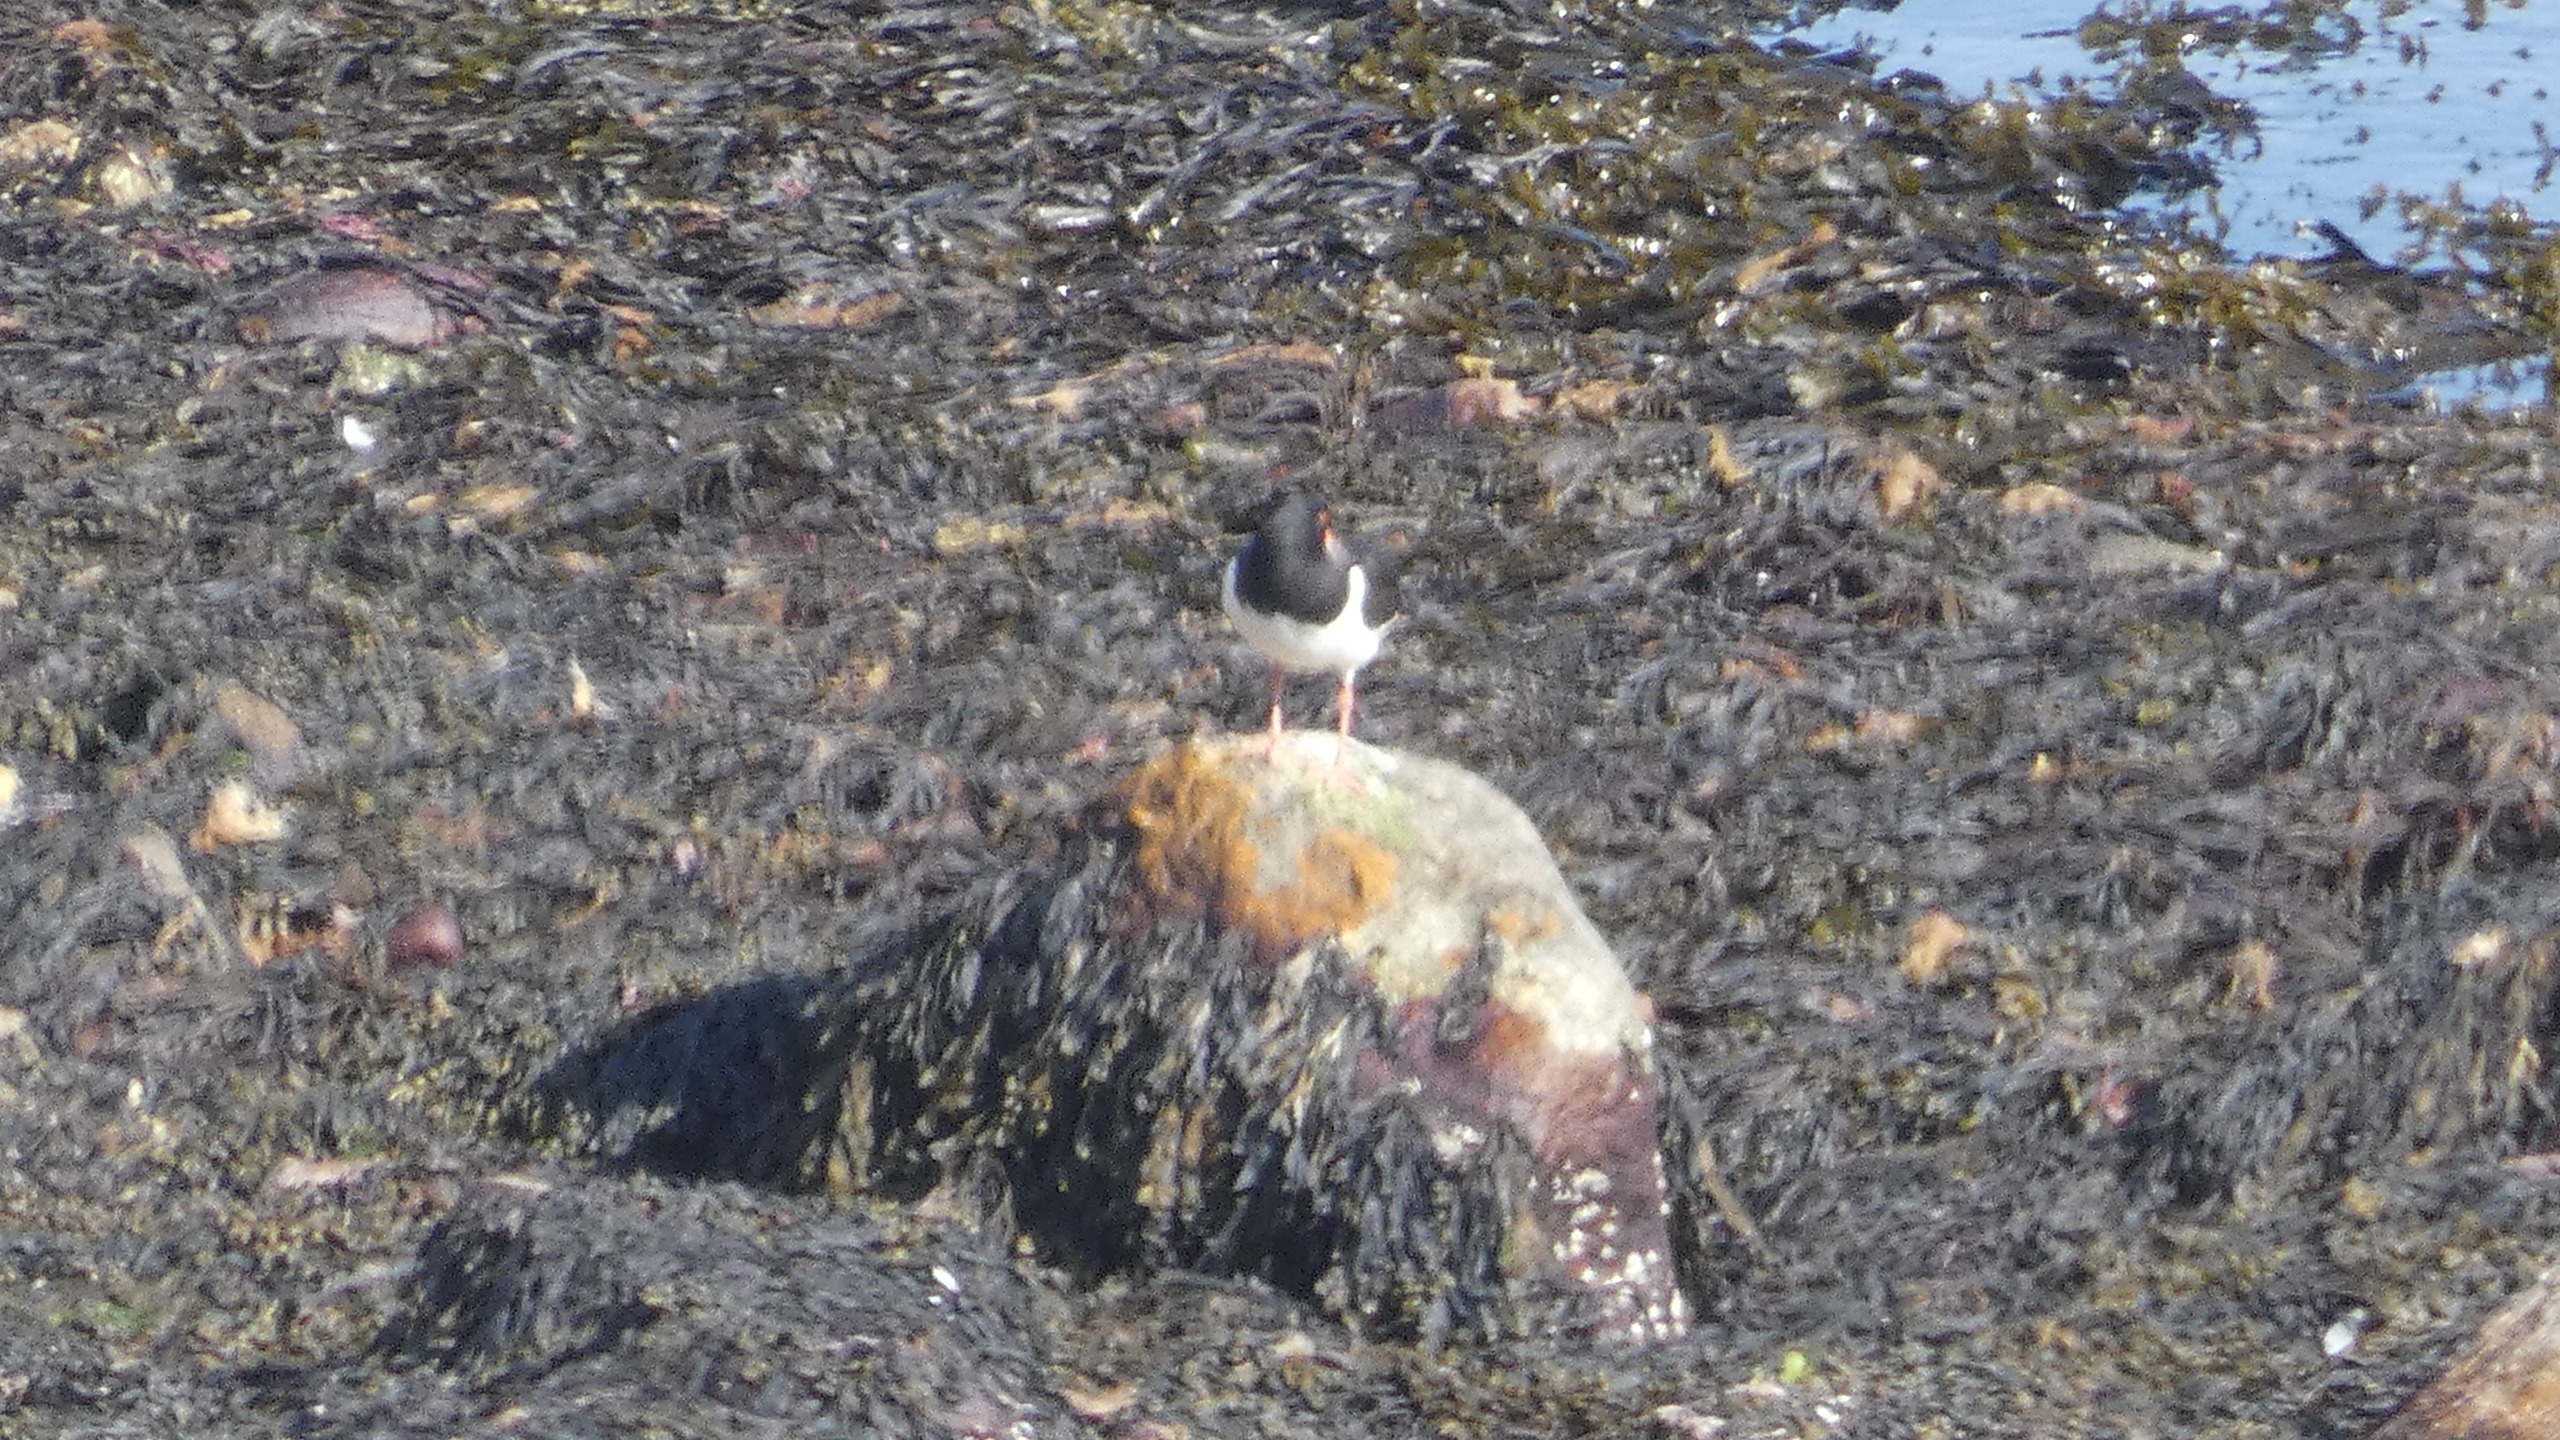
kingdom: Animalia
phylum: Chordata
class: Aves
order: Charadriiformes
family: Haematopodidae
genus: Haematopus
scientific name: Haematopus ostralegus
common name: Strandskade
